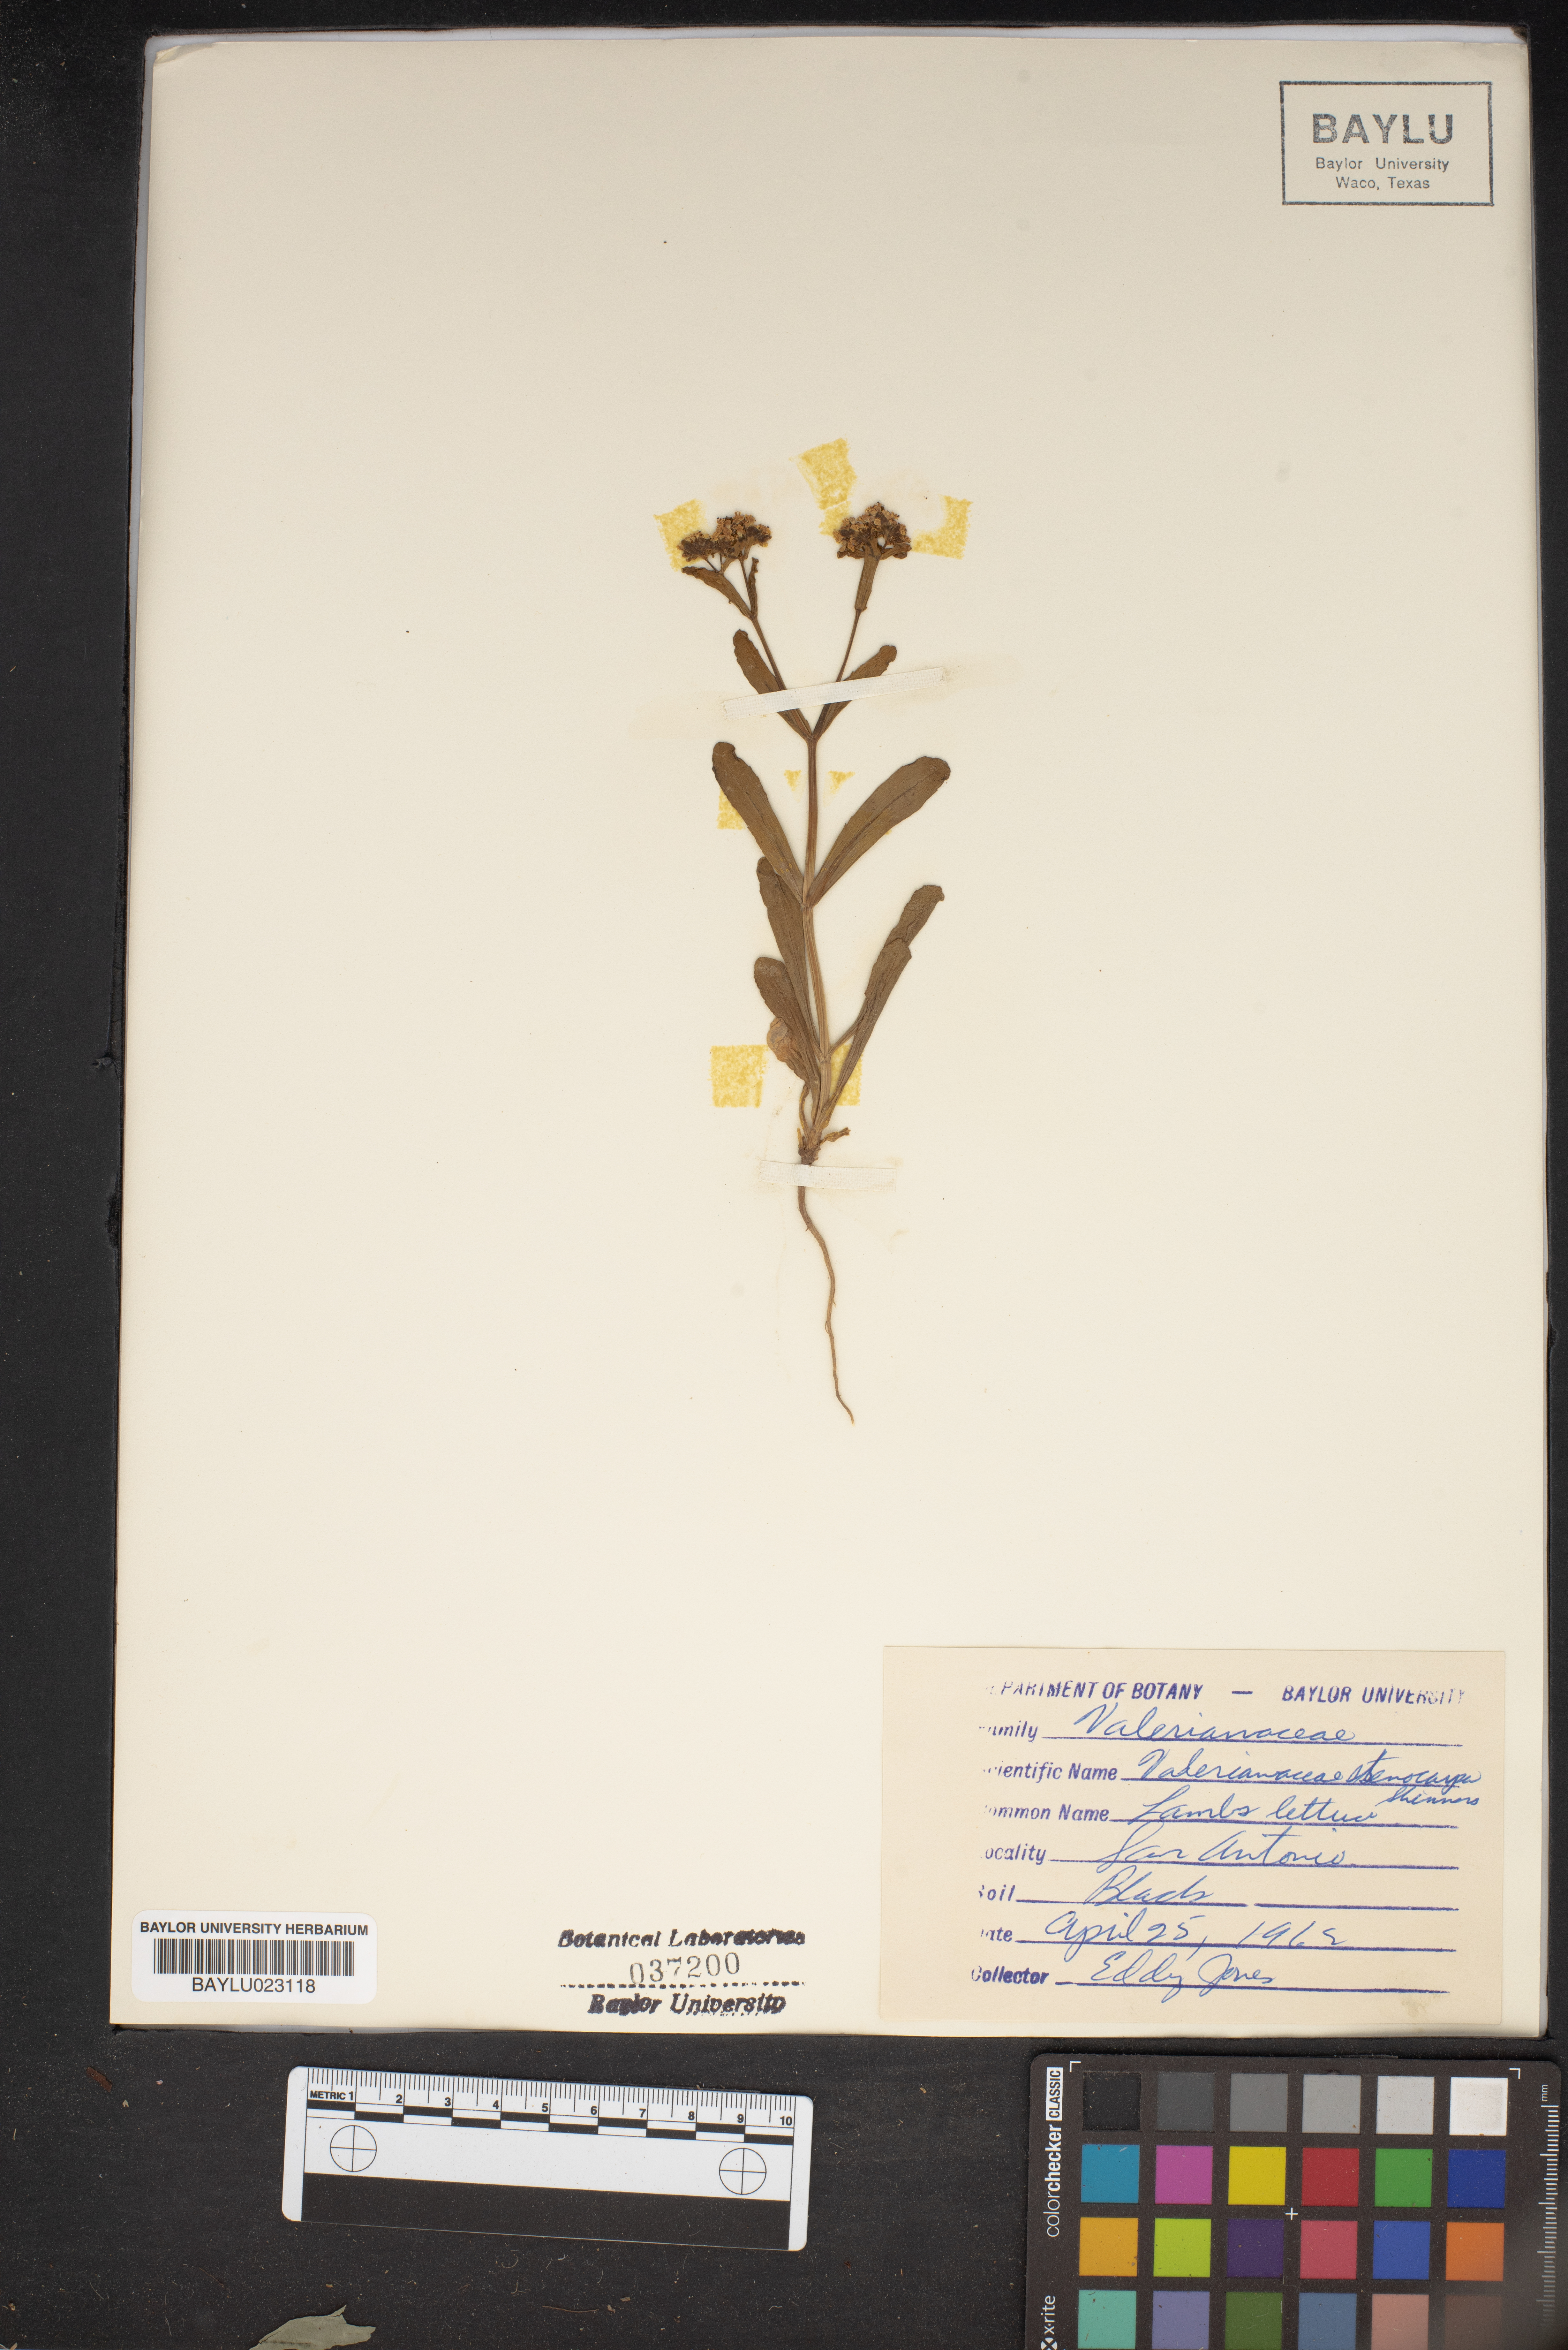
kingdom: Plantae
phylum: Tracheophyta
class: Magnoliopsida
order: Dipsacales
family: Caprifoliaceae
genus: Valerianella
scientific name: Valerianella stenocarpa
